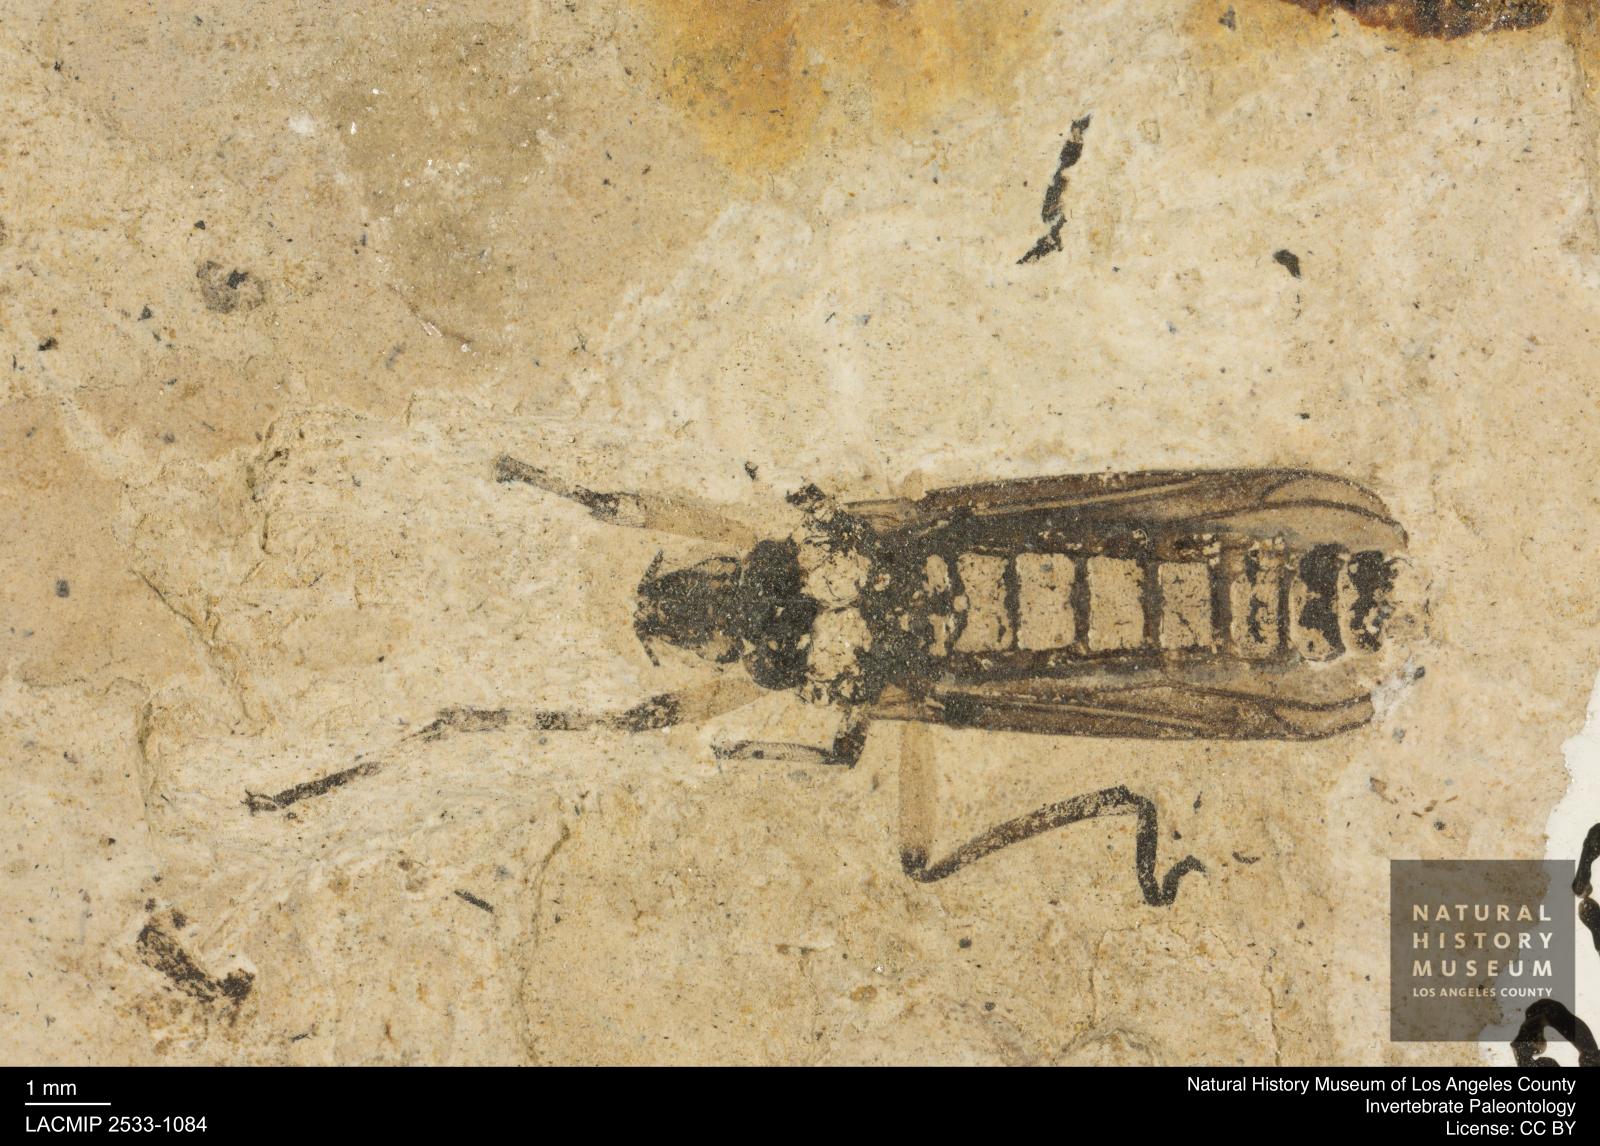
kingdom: Animalia
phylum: Arthropoda
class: Insecta
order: Diptera
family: Bibionidae
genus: Plecia
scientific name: Plecia
